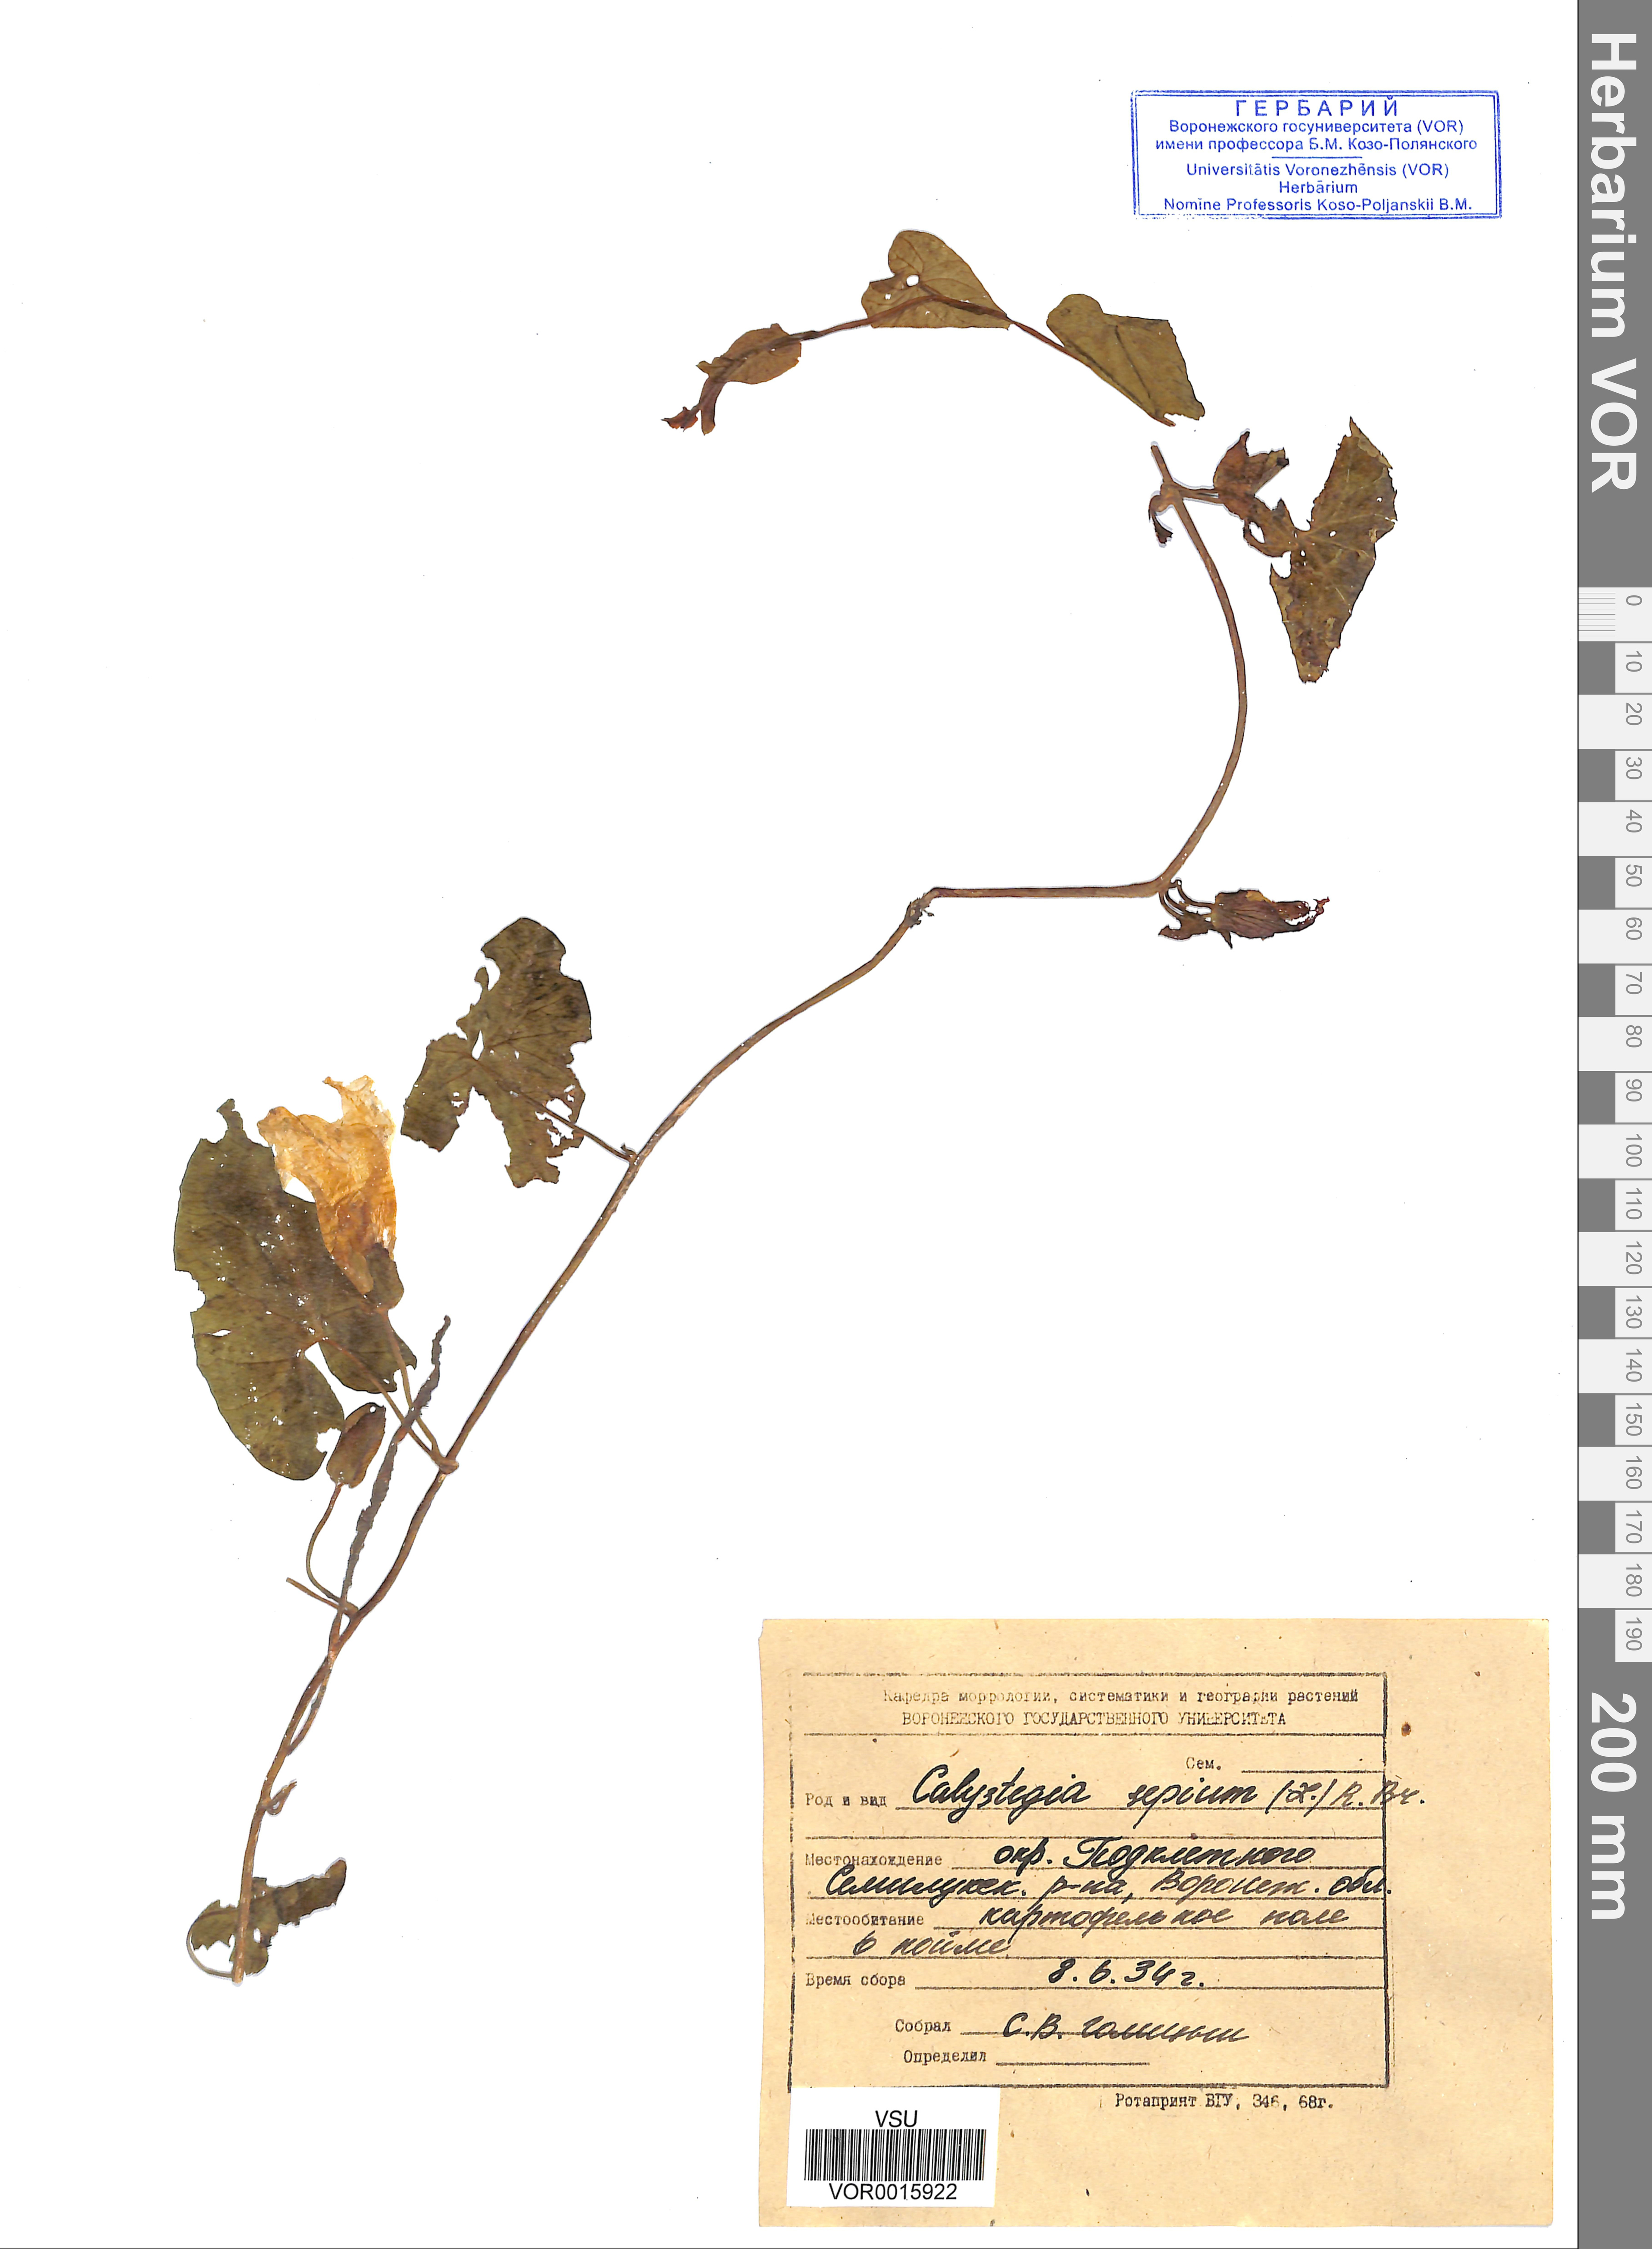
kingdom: Plantae
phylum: Tracheophyta
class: Magnoliopsida
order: Solanales
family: Convolvulaceae
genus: Calystegia
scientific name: Calystegia sepium
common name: Hedge bindweed
